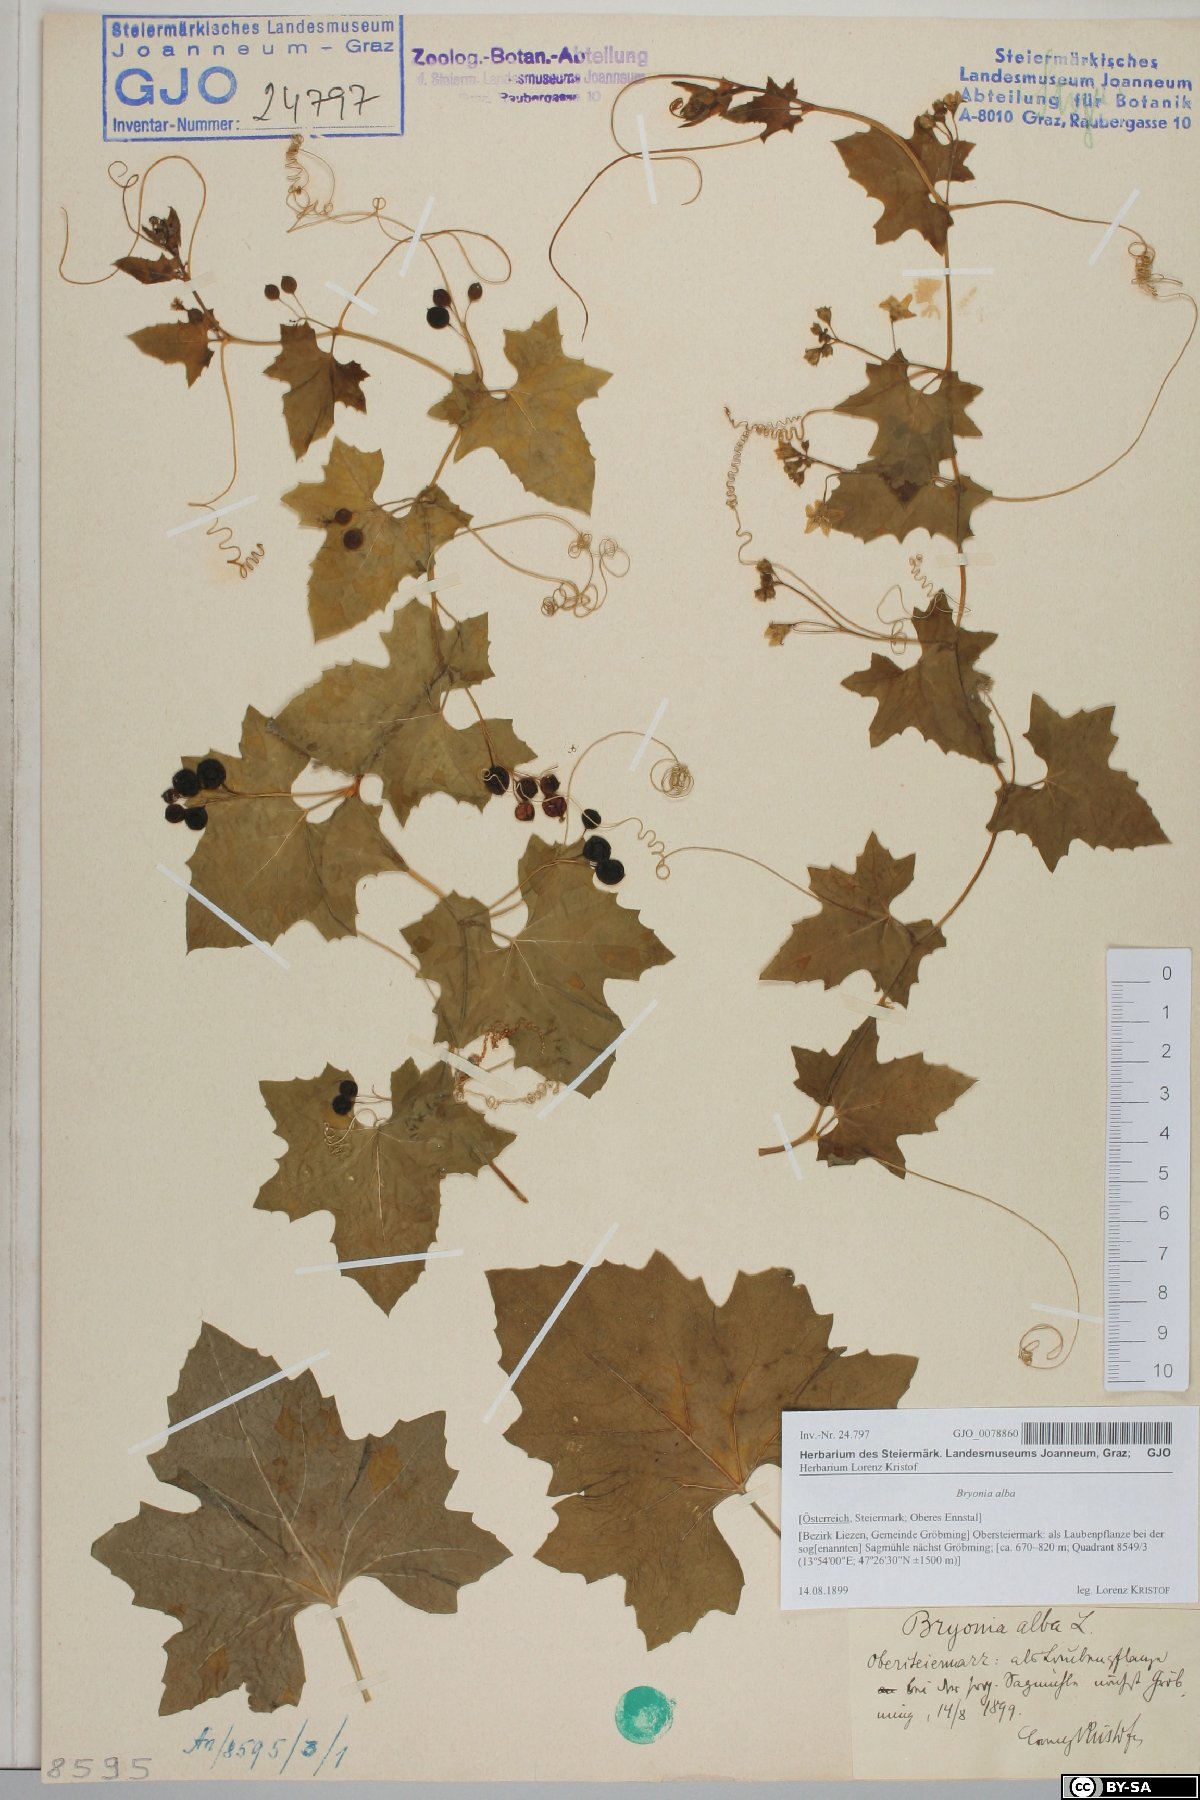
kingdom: Plantae
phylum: Tracheophyta
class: Magnoliopsida
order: Cucurbitales
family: Cucurbitaceae
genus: Bryonia
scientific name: Bryonia alba
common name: White bryony
